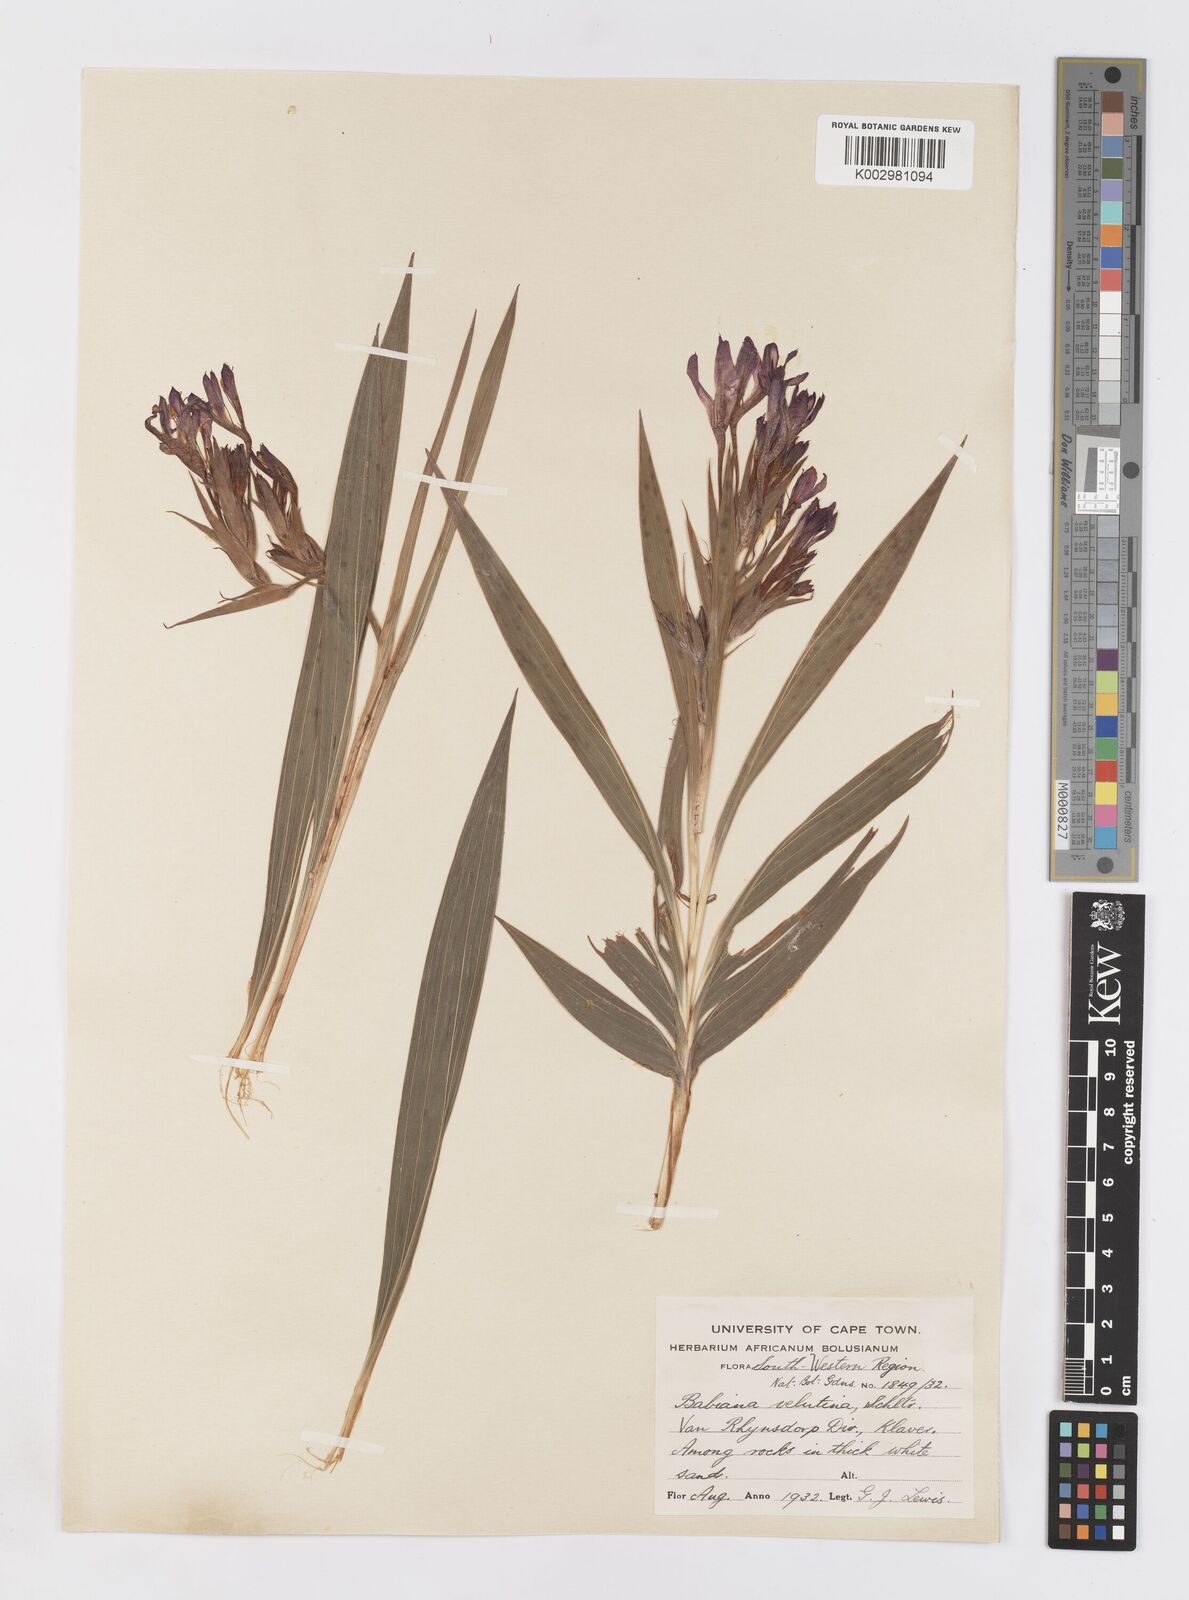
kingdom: Plantae
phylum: Tracheophyta
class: Liliopsida
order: Asparagales
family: Iridaceae
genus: Babiana
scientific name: Babiana ecklonii
